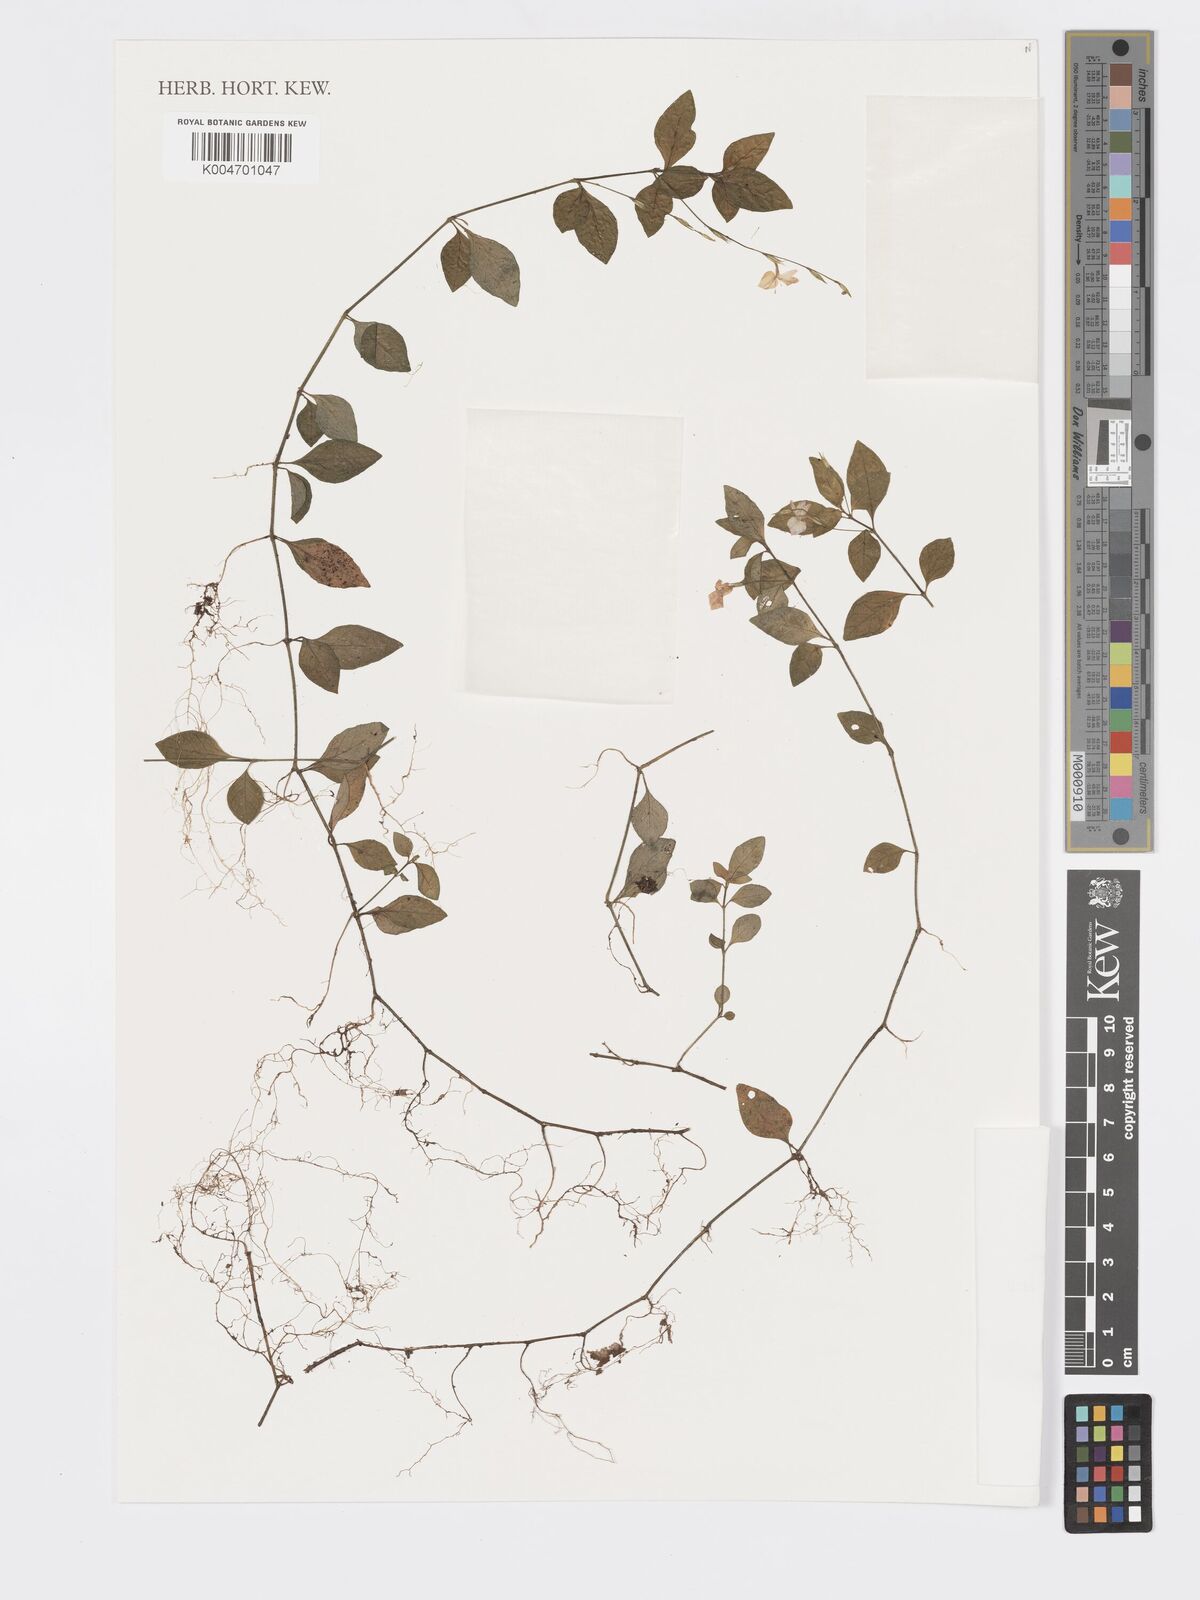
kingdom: Plantae
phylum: Tracheophyta
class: Magnoliopsida
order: Lamiales
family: Acanthaceae
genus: Hypoestes
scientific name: Hypoestes
